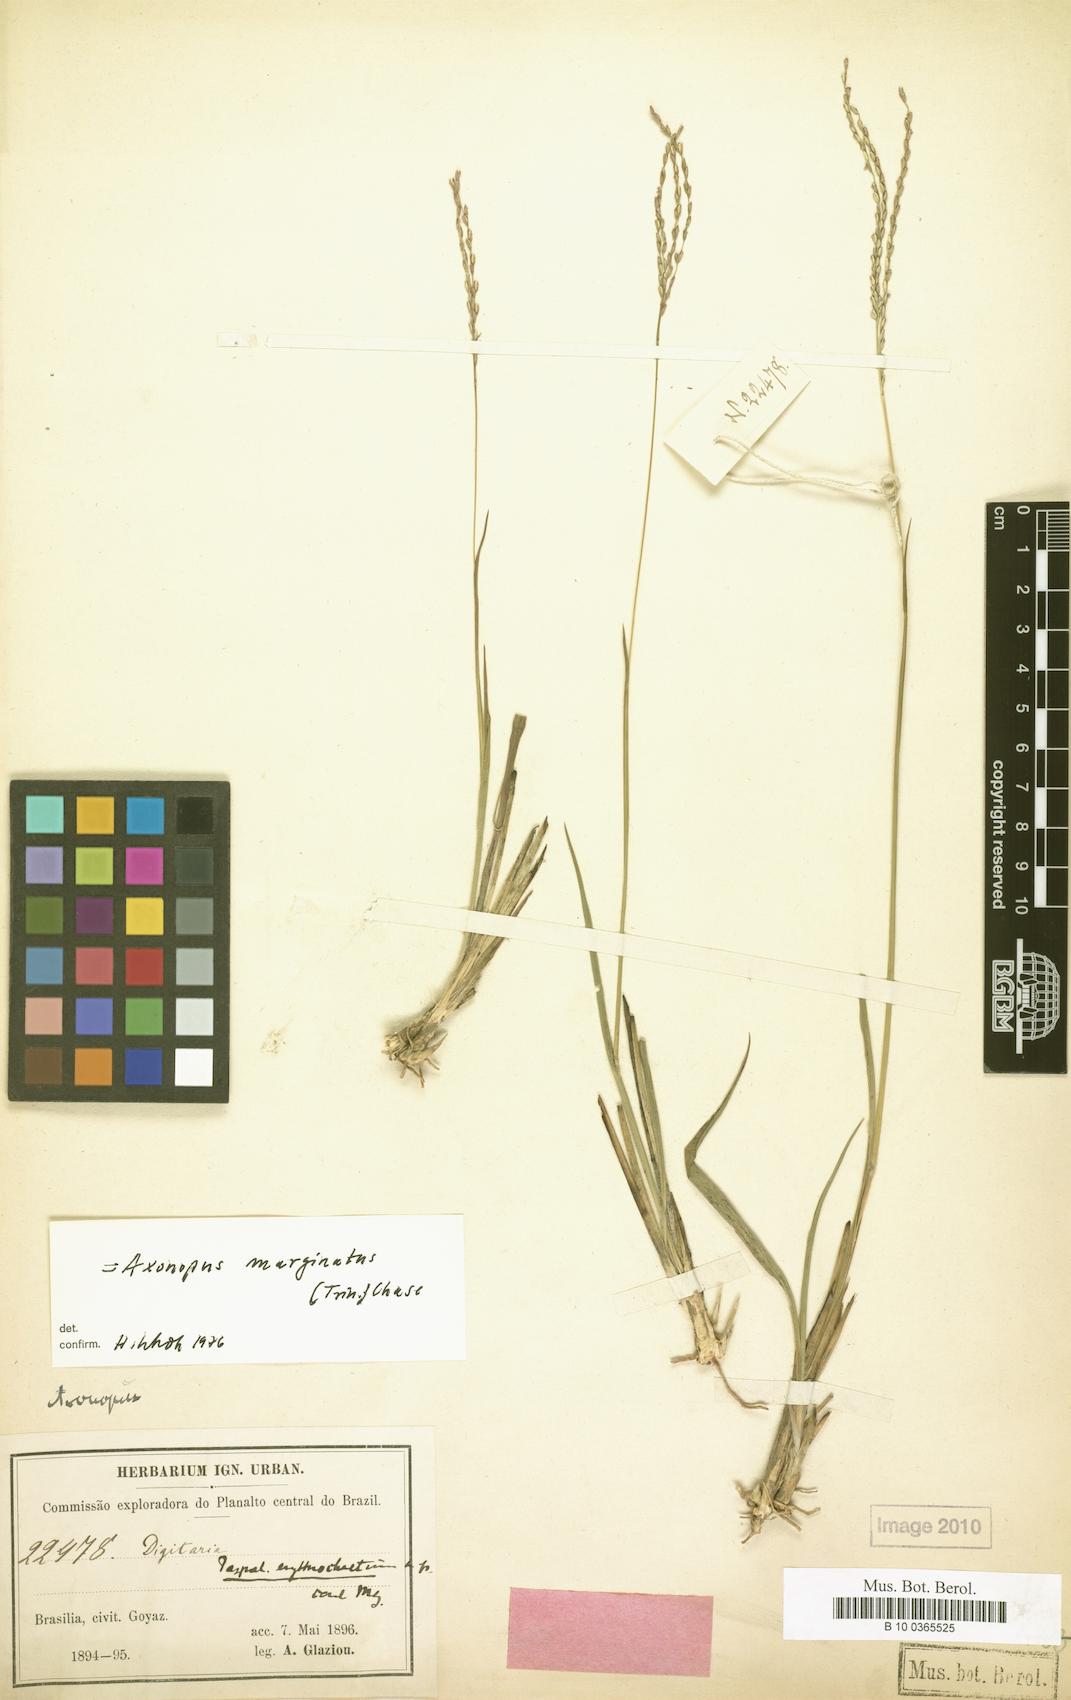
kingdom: Plantae
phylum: Tracheophyta
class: Liliopsida
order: Poales
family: Poaceae
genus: Axonopus
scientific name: Axonopus marginatus
